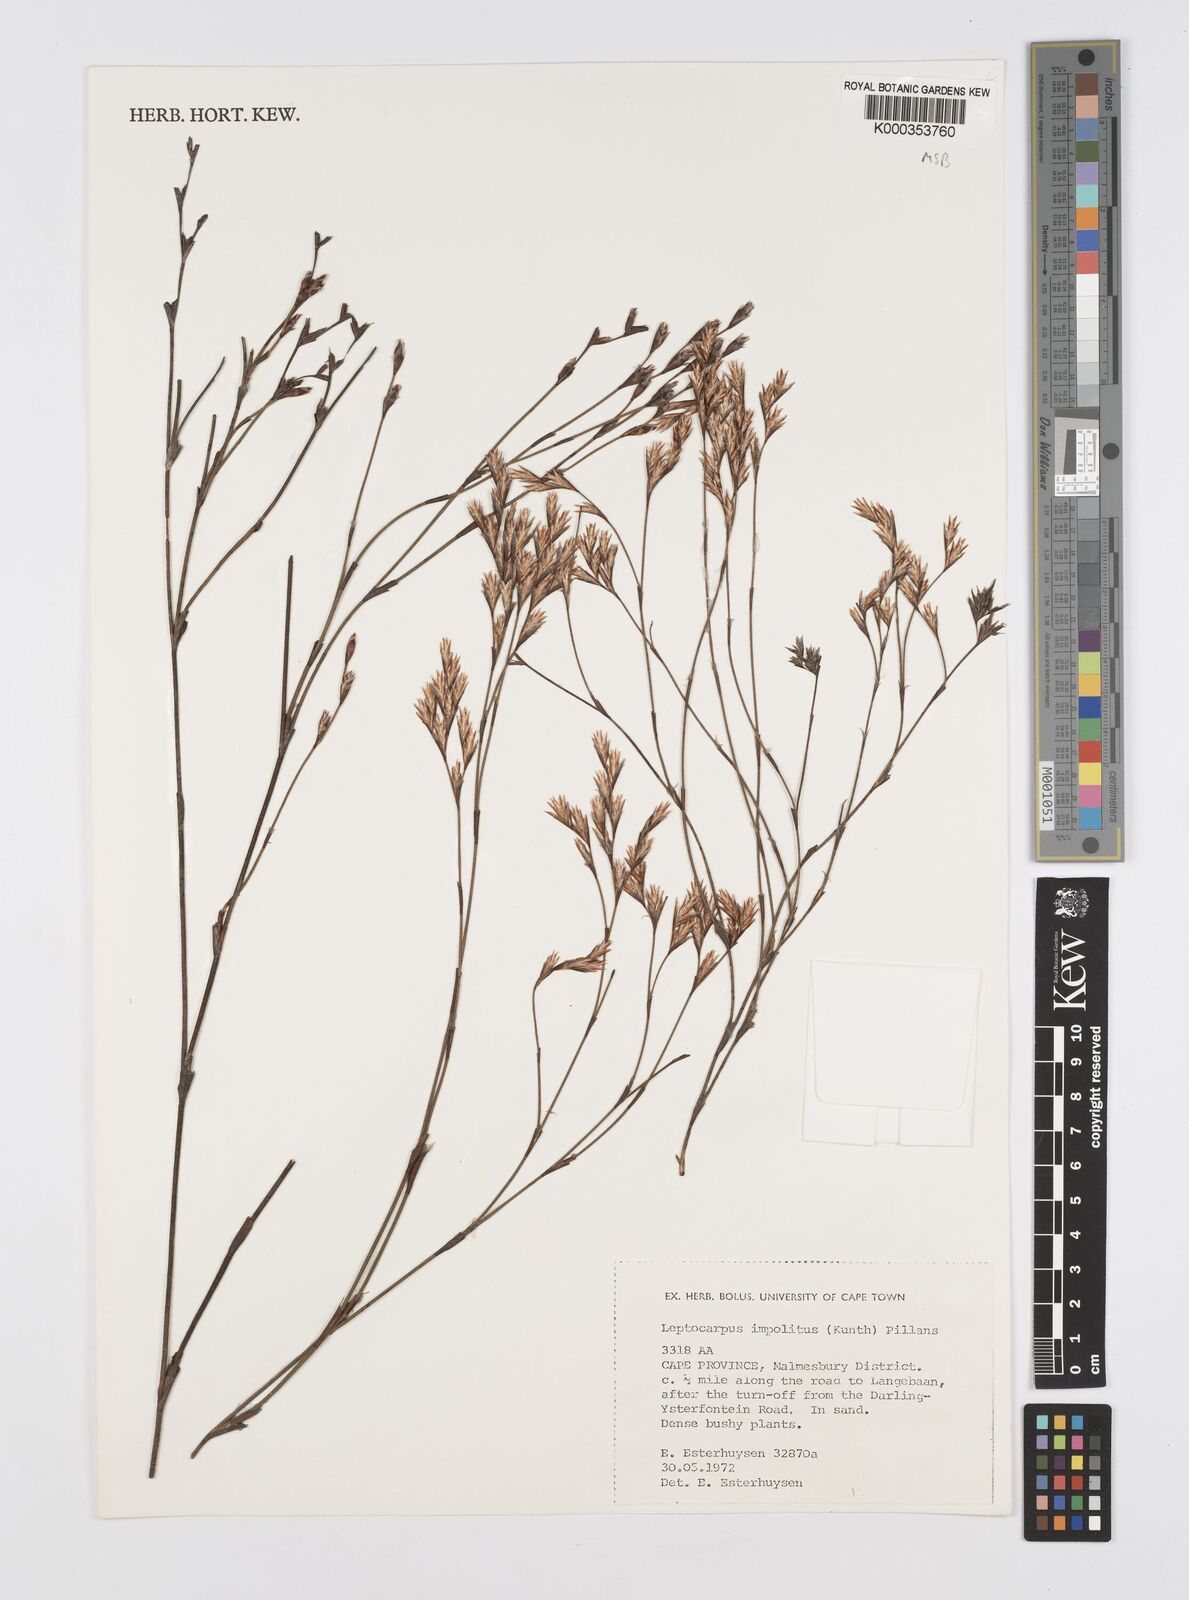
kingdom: Plantae
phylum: Tracheophyta
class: Liliopsida
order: Poales
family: Restionaceae
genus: Restio
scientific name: Restio impolitus
